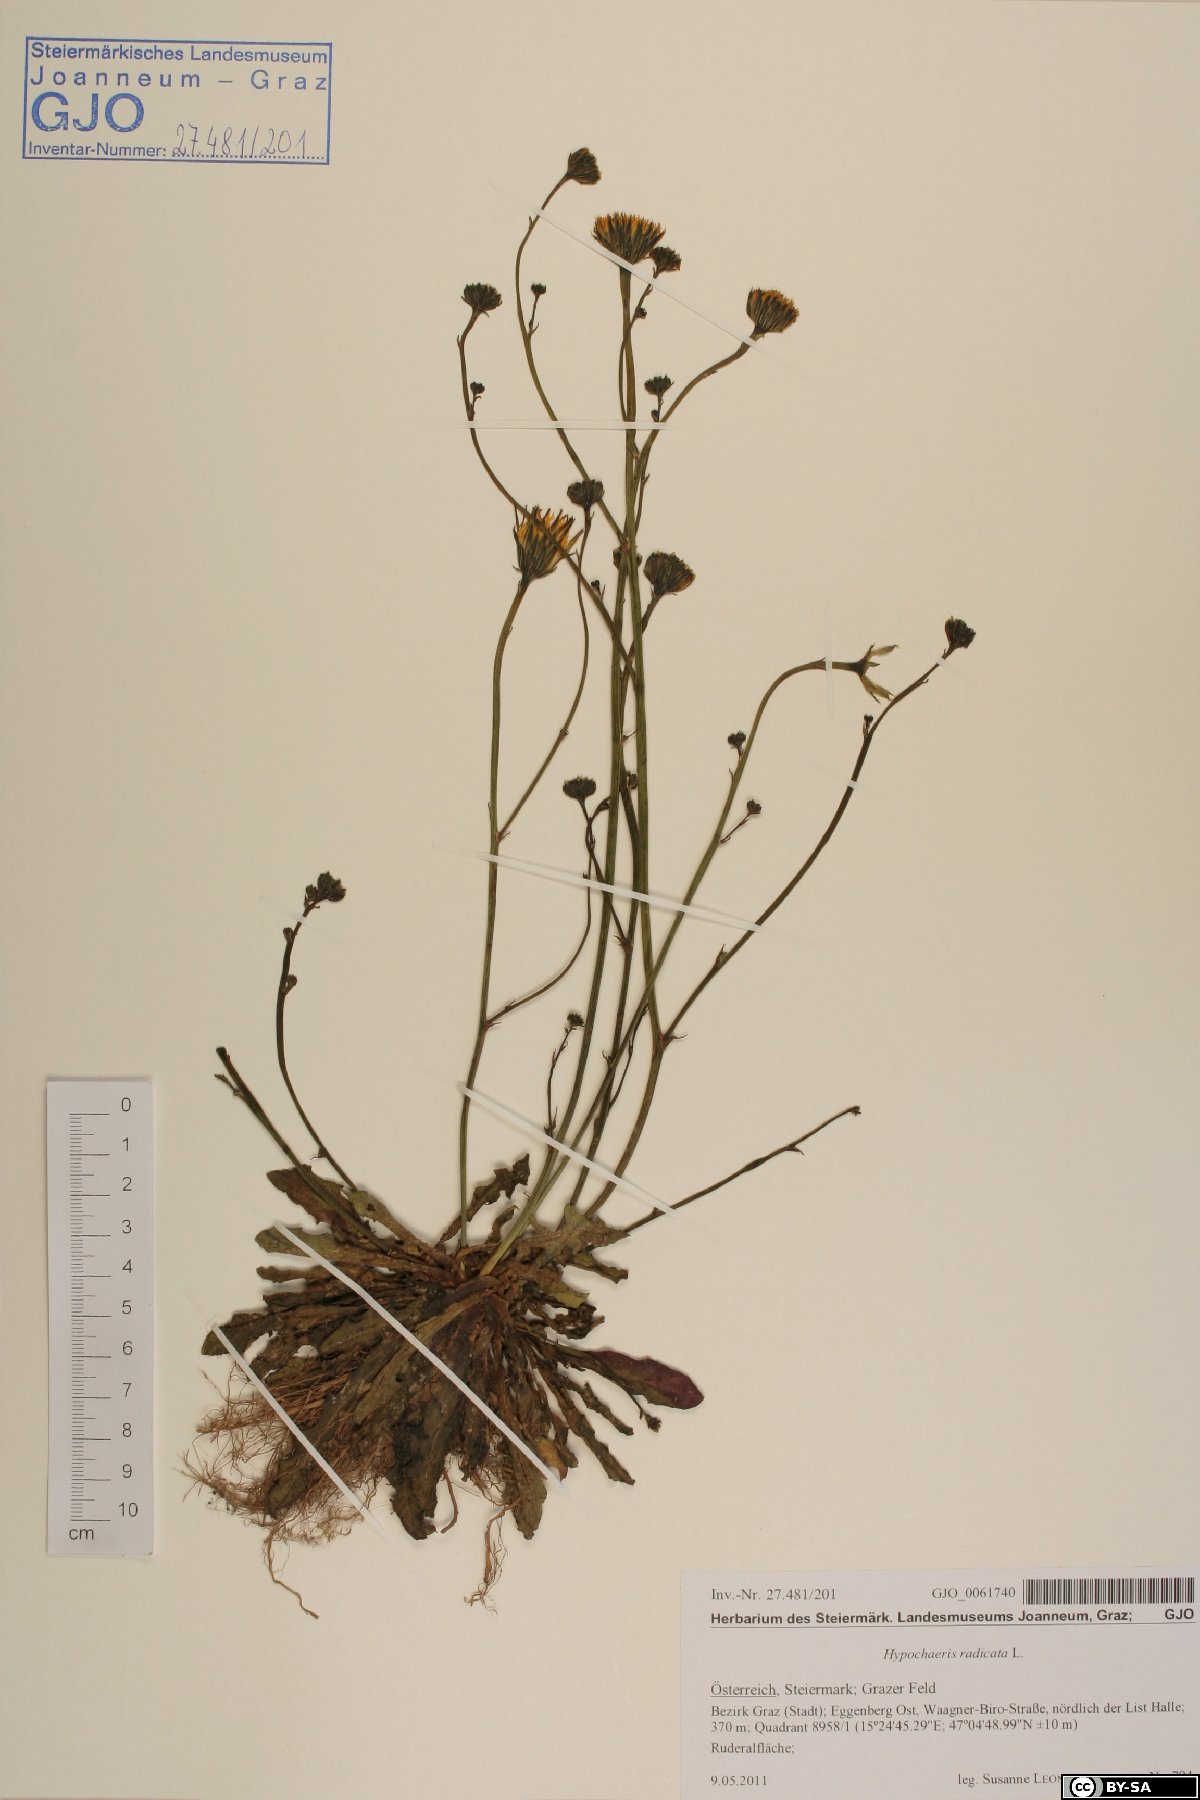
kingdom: Plantae
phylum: Tracheophyta
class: Magnoliopsida
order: Asterales
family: Asteraceae
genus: Hypochaeris
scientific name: Hypochaeris radicata
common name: Flatweed
